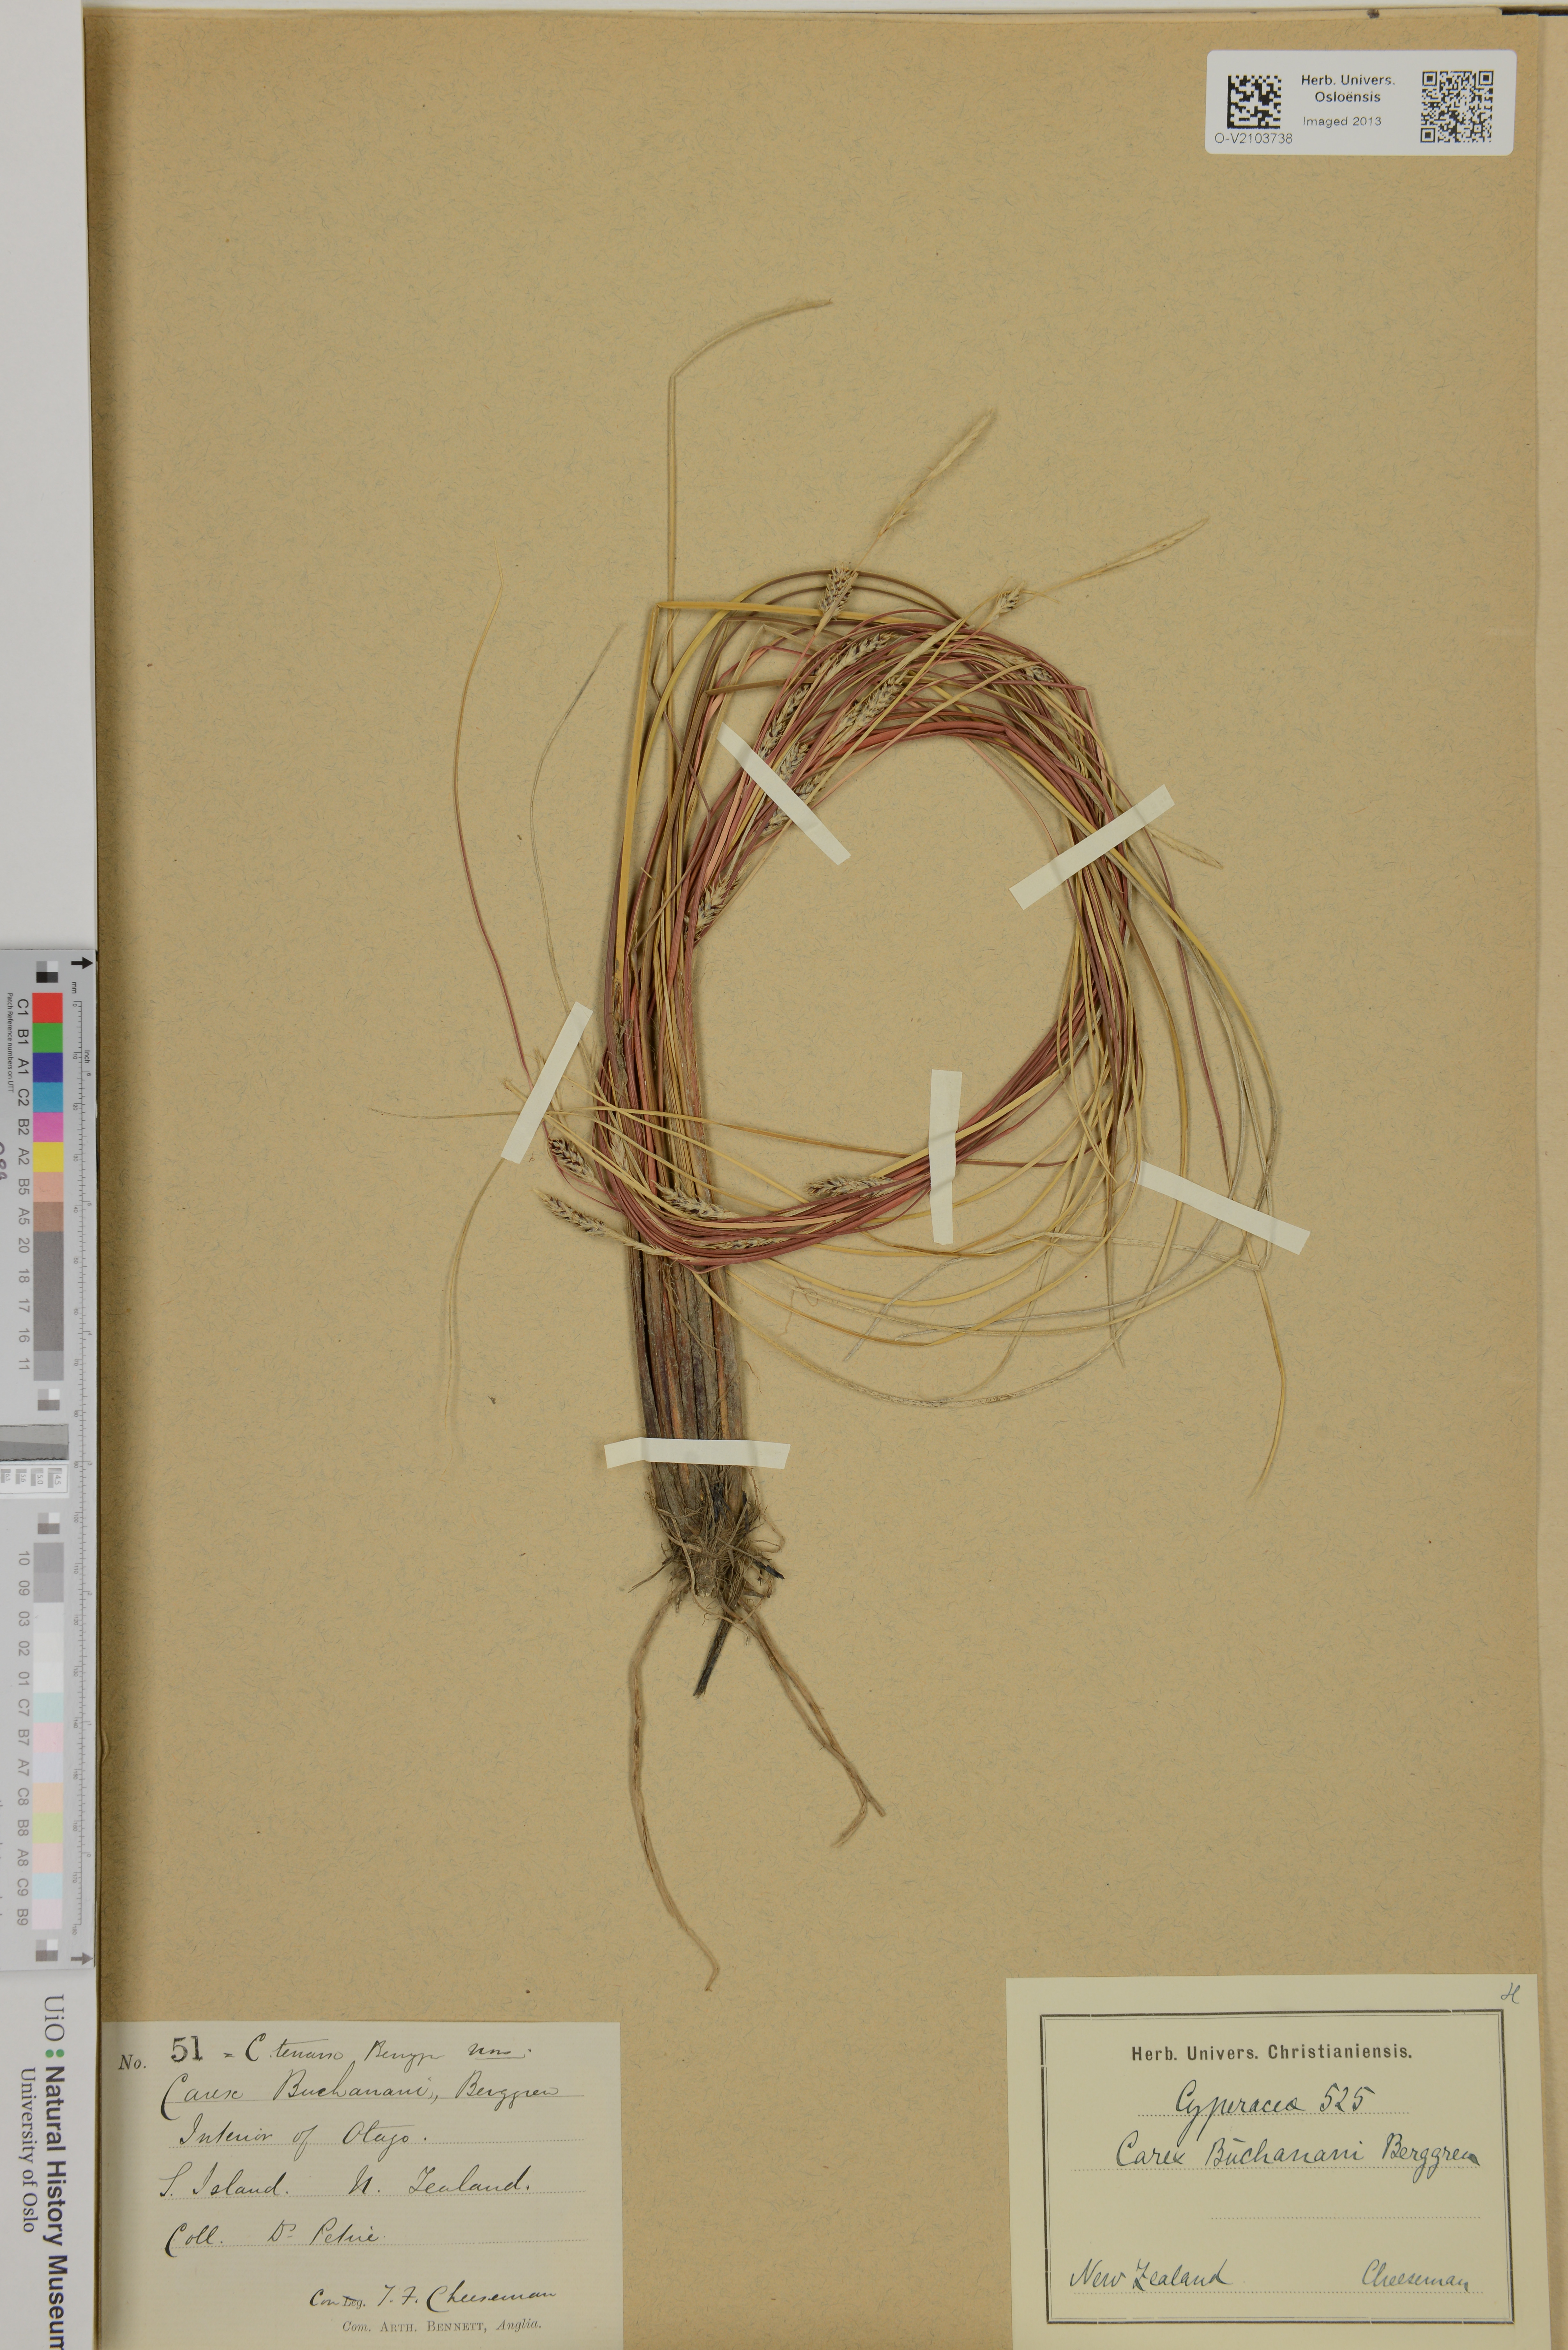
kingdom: Plantae
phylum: Tracheophyta
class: Liliopsida
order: Poales
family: Cyperaceae
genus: Carex
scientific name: Carex buchananii
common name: Leatherleaf sedge
